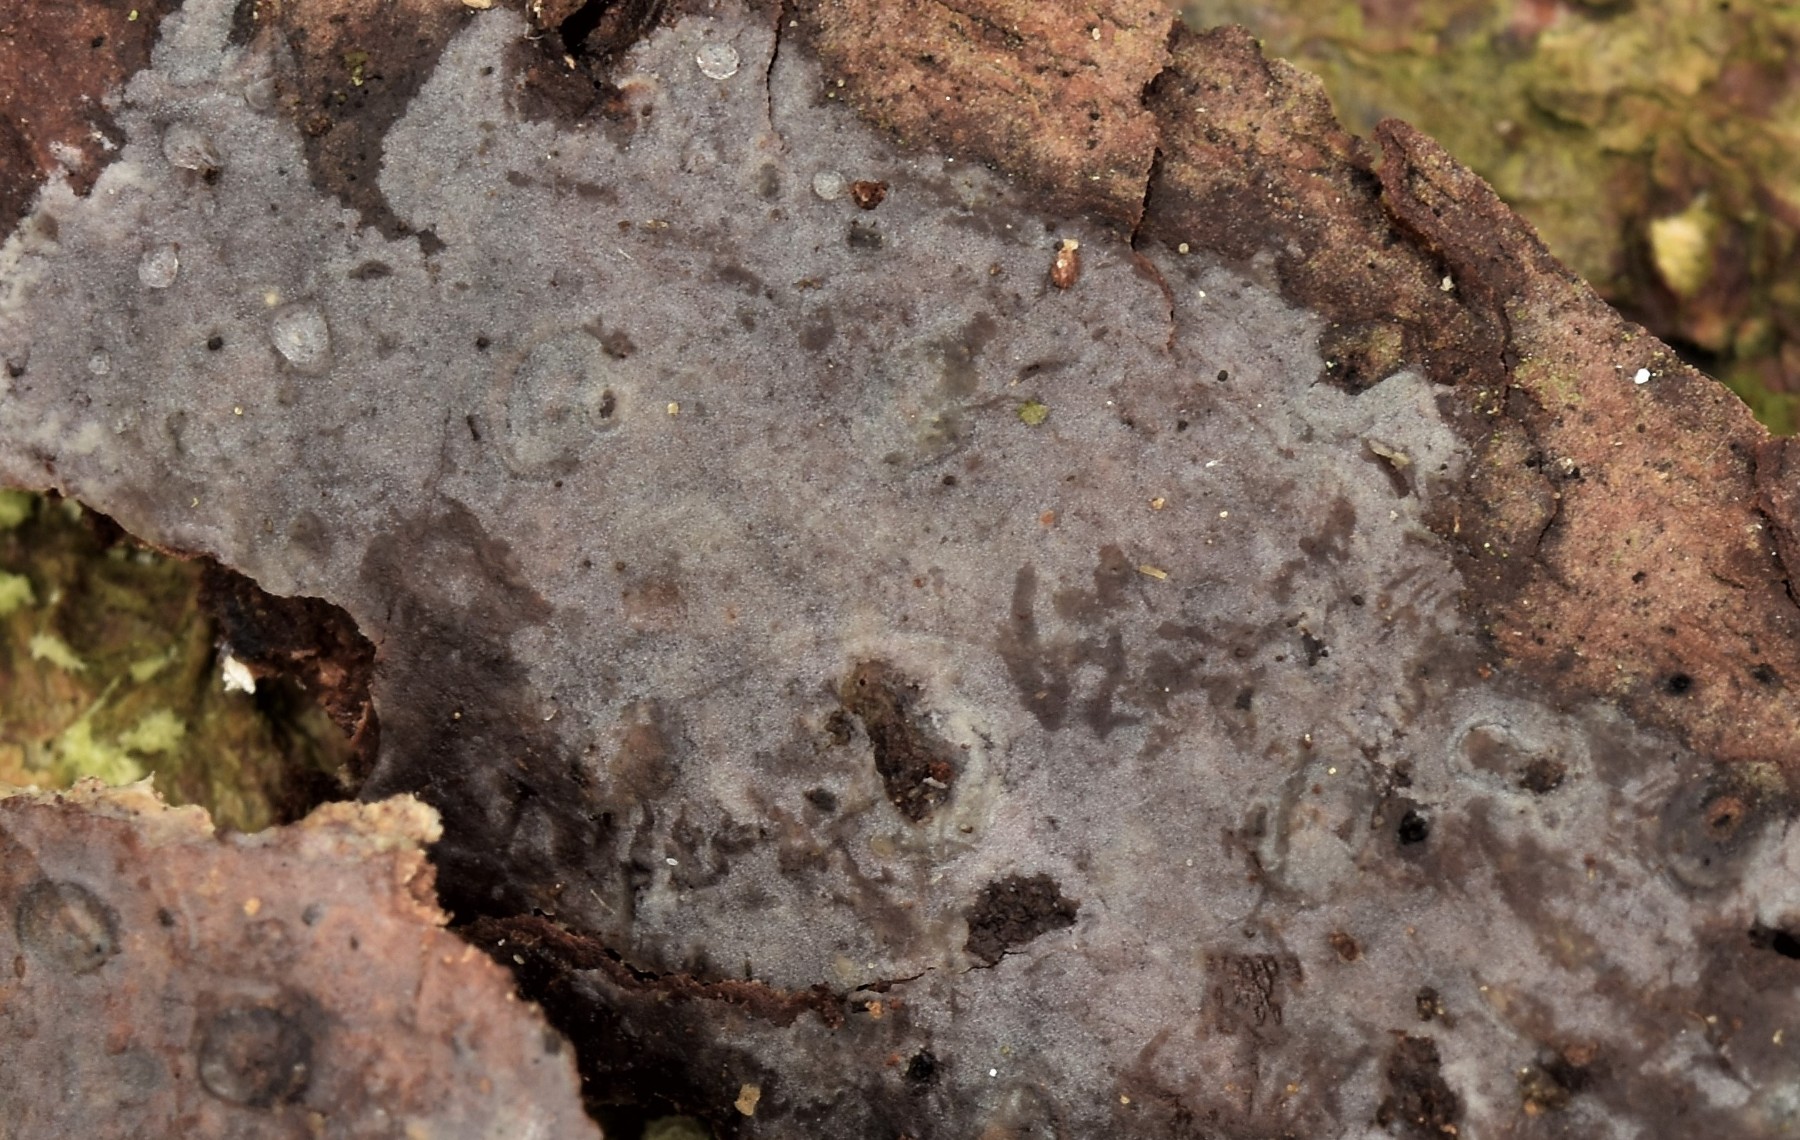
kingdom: Fungi
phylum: Basidiomycota
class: Agaricomycetes
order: Sebacinales
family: Sebacinaceae
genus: Sebacina
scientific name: Sebacina grisea
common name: blågrå bævrehinde
